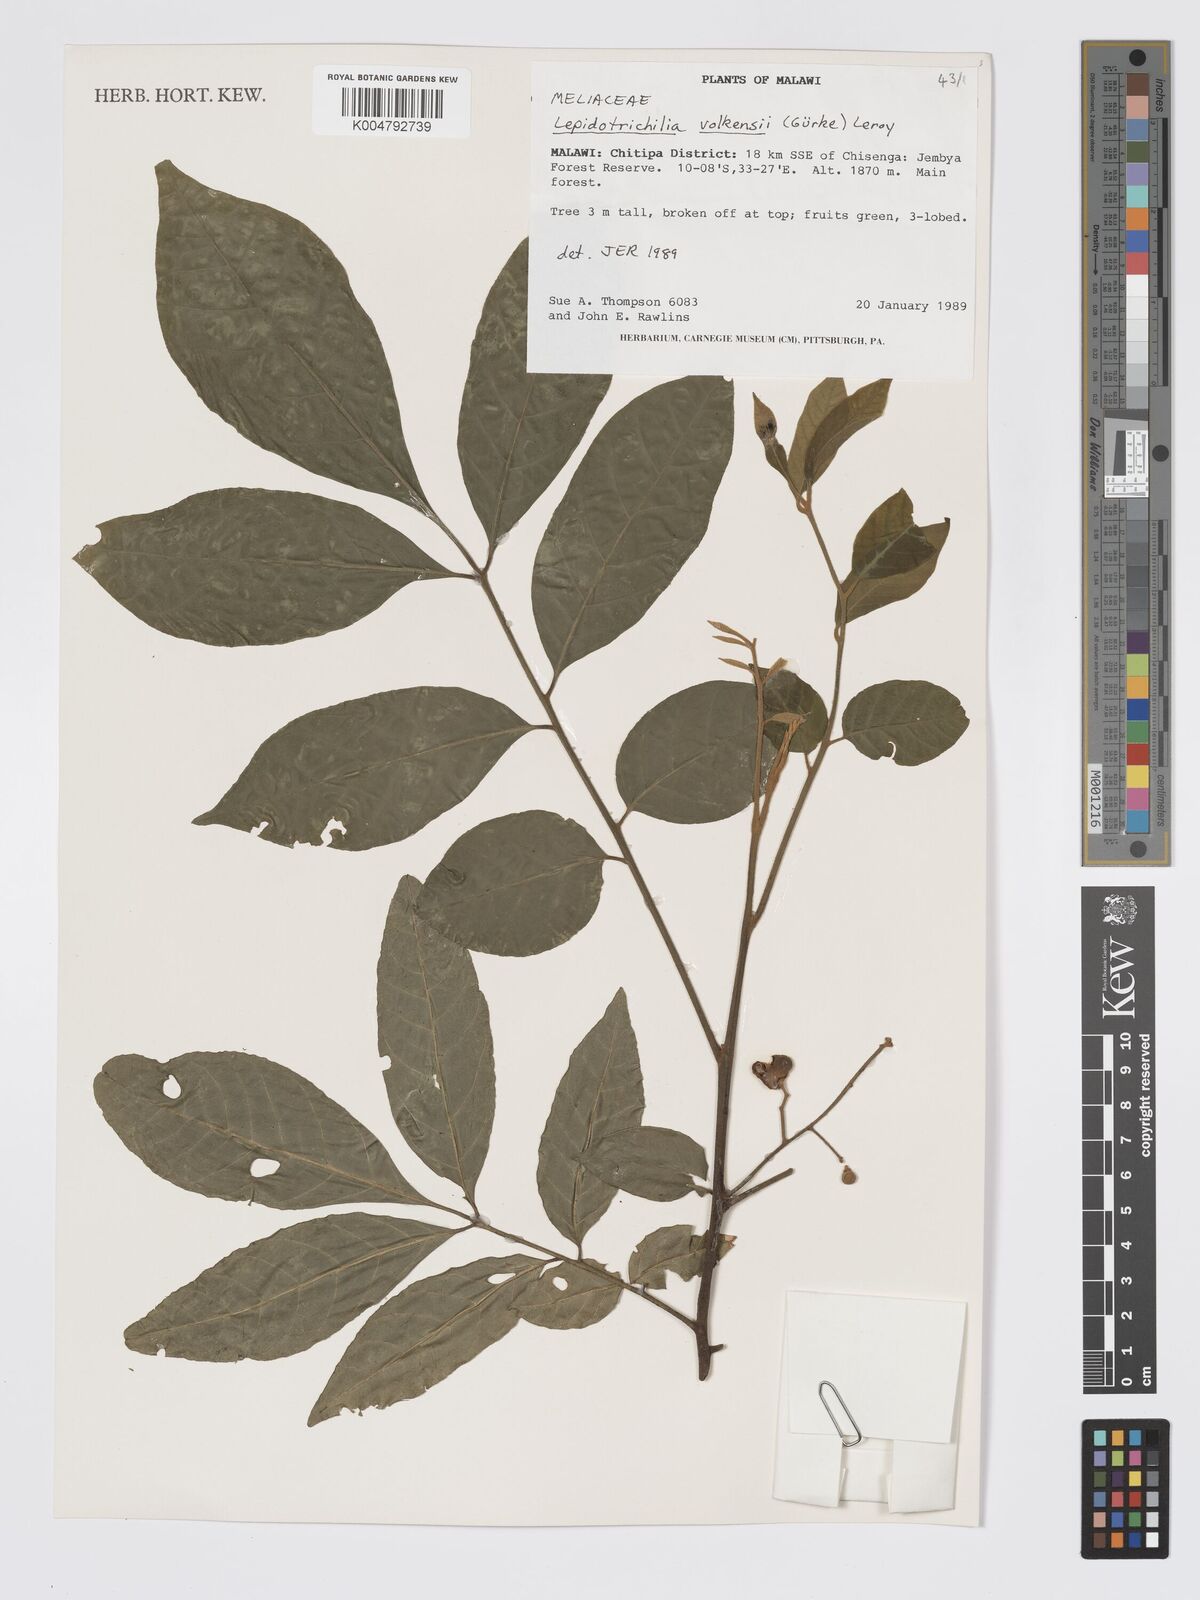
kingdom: Plantae
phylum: Tracheophyta
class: Magnoliopsida
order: Sapindales
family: Meliaceae
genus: Lepidotrichilia
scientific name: Lepidotrichilia volkensii
